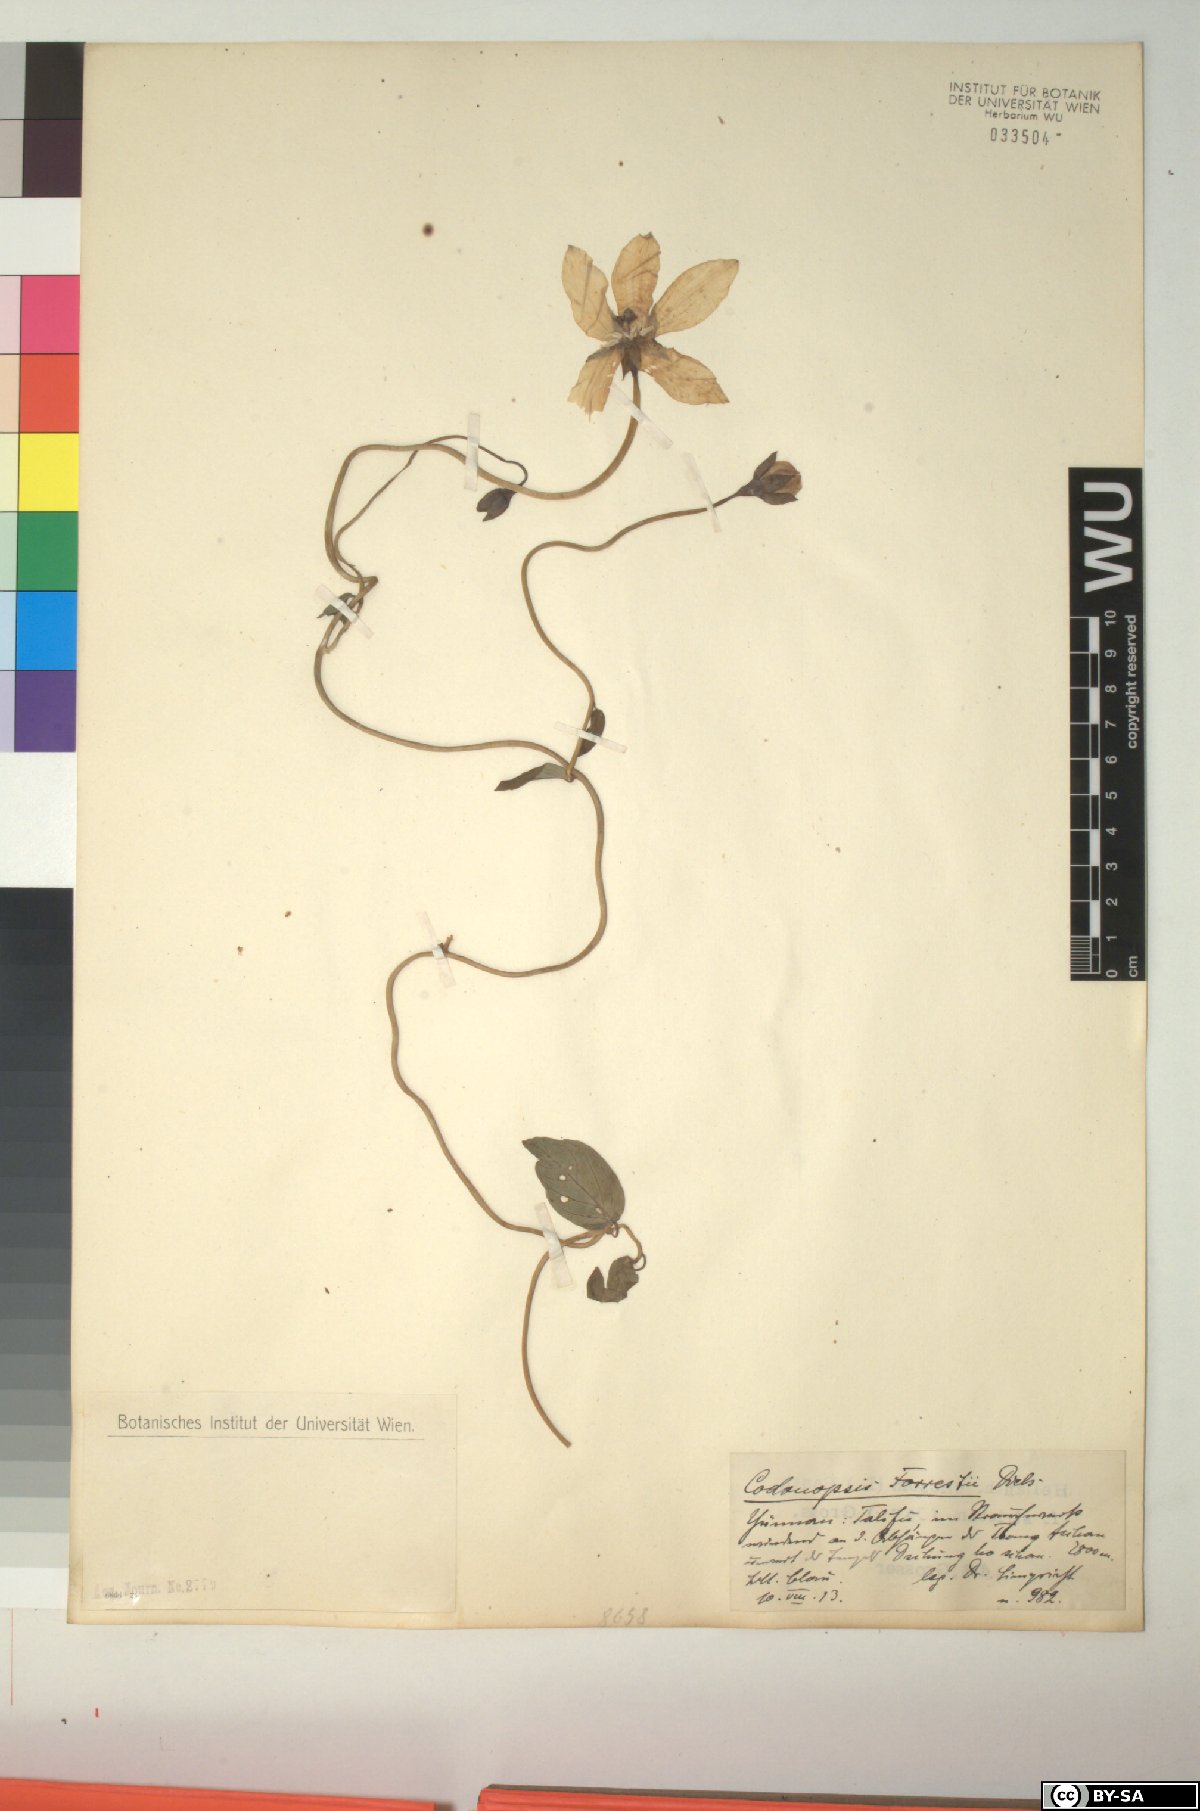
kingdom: Plantae
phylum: Tracheophyta
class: Magnoliopsida
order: Asterales
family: Campanulaceae
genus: Pseudocodon
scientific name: Pseudocodon convolvulaceus
